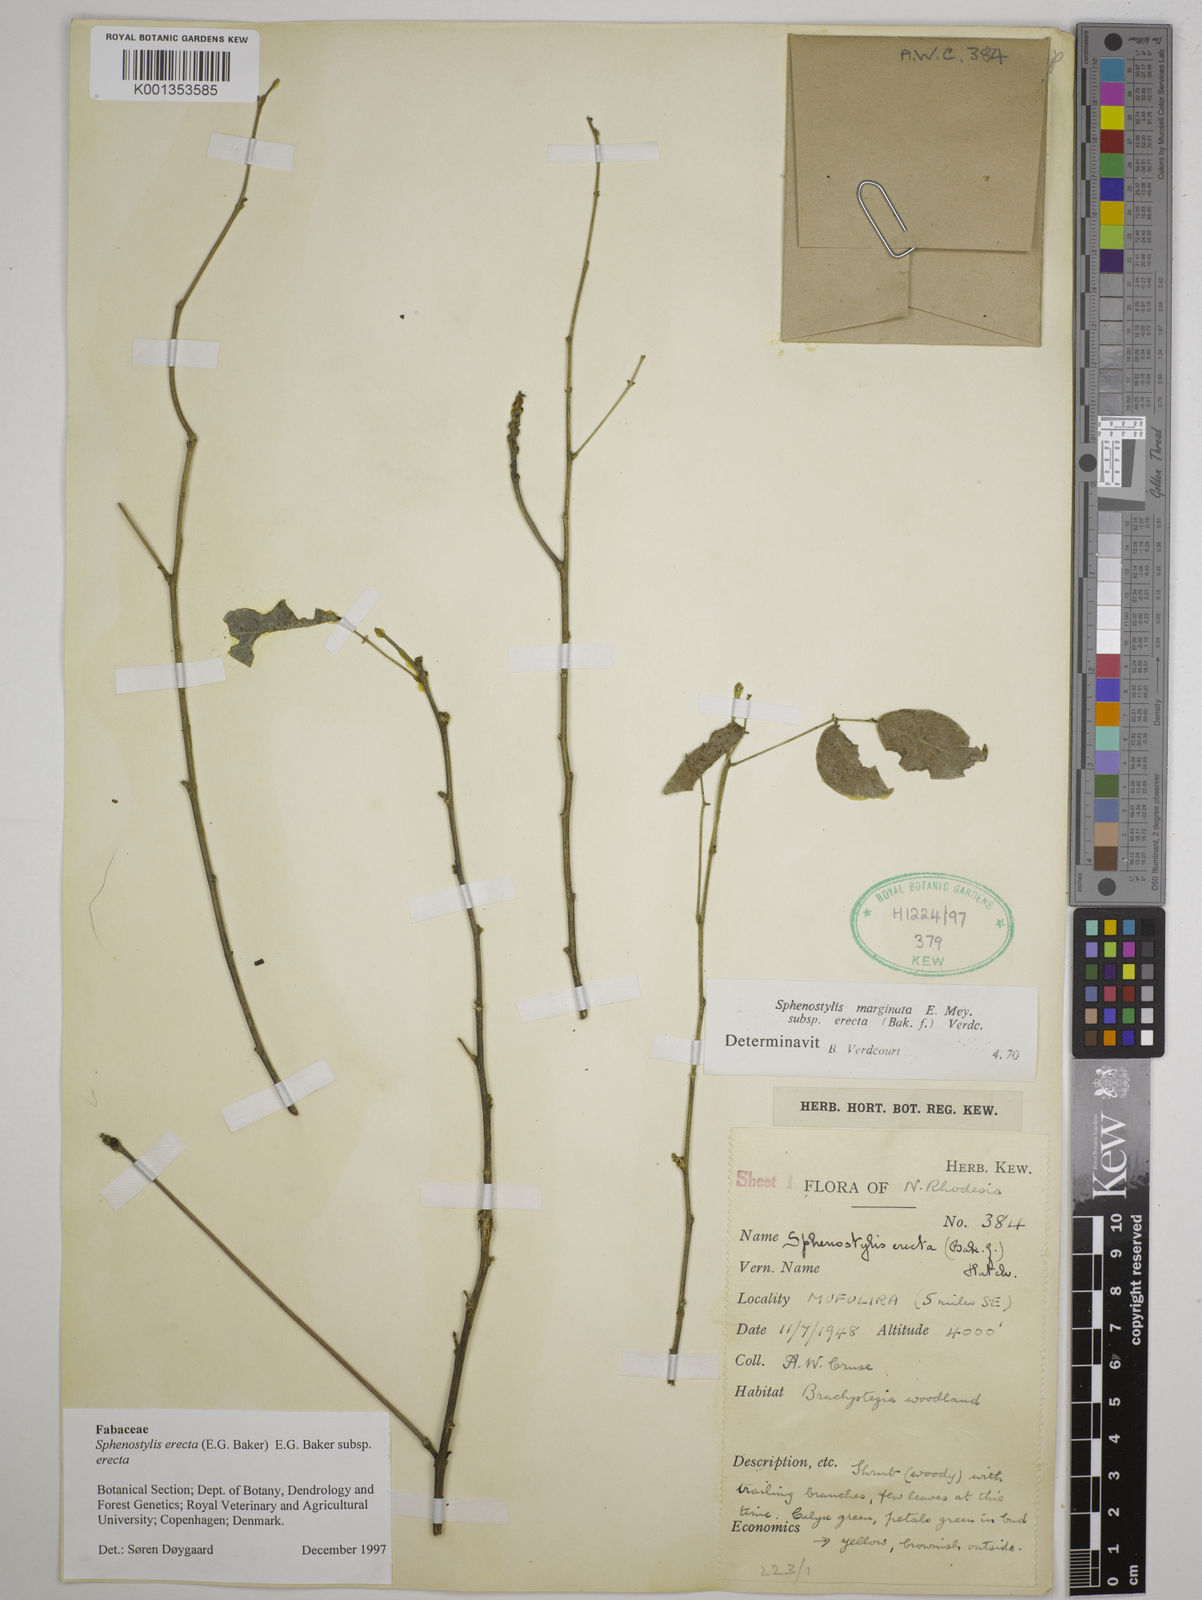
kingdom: Plantae
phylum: Tracheophyta
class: Magnoliopsida
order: Fabales
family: Fabaceae
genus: Sphenostylis
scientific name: Sphenostylis erecta
